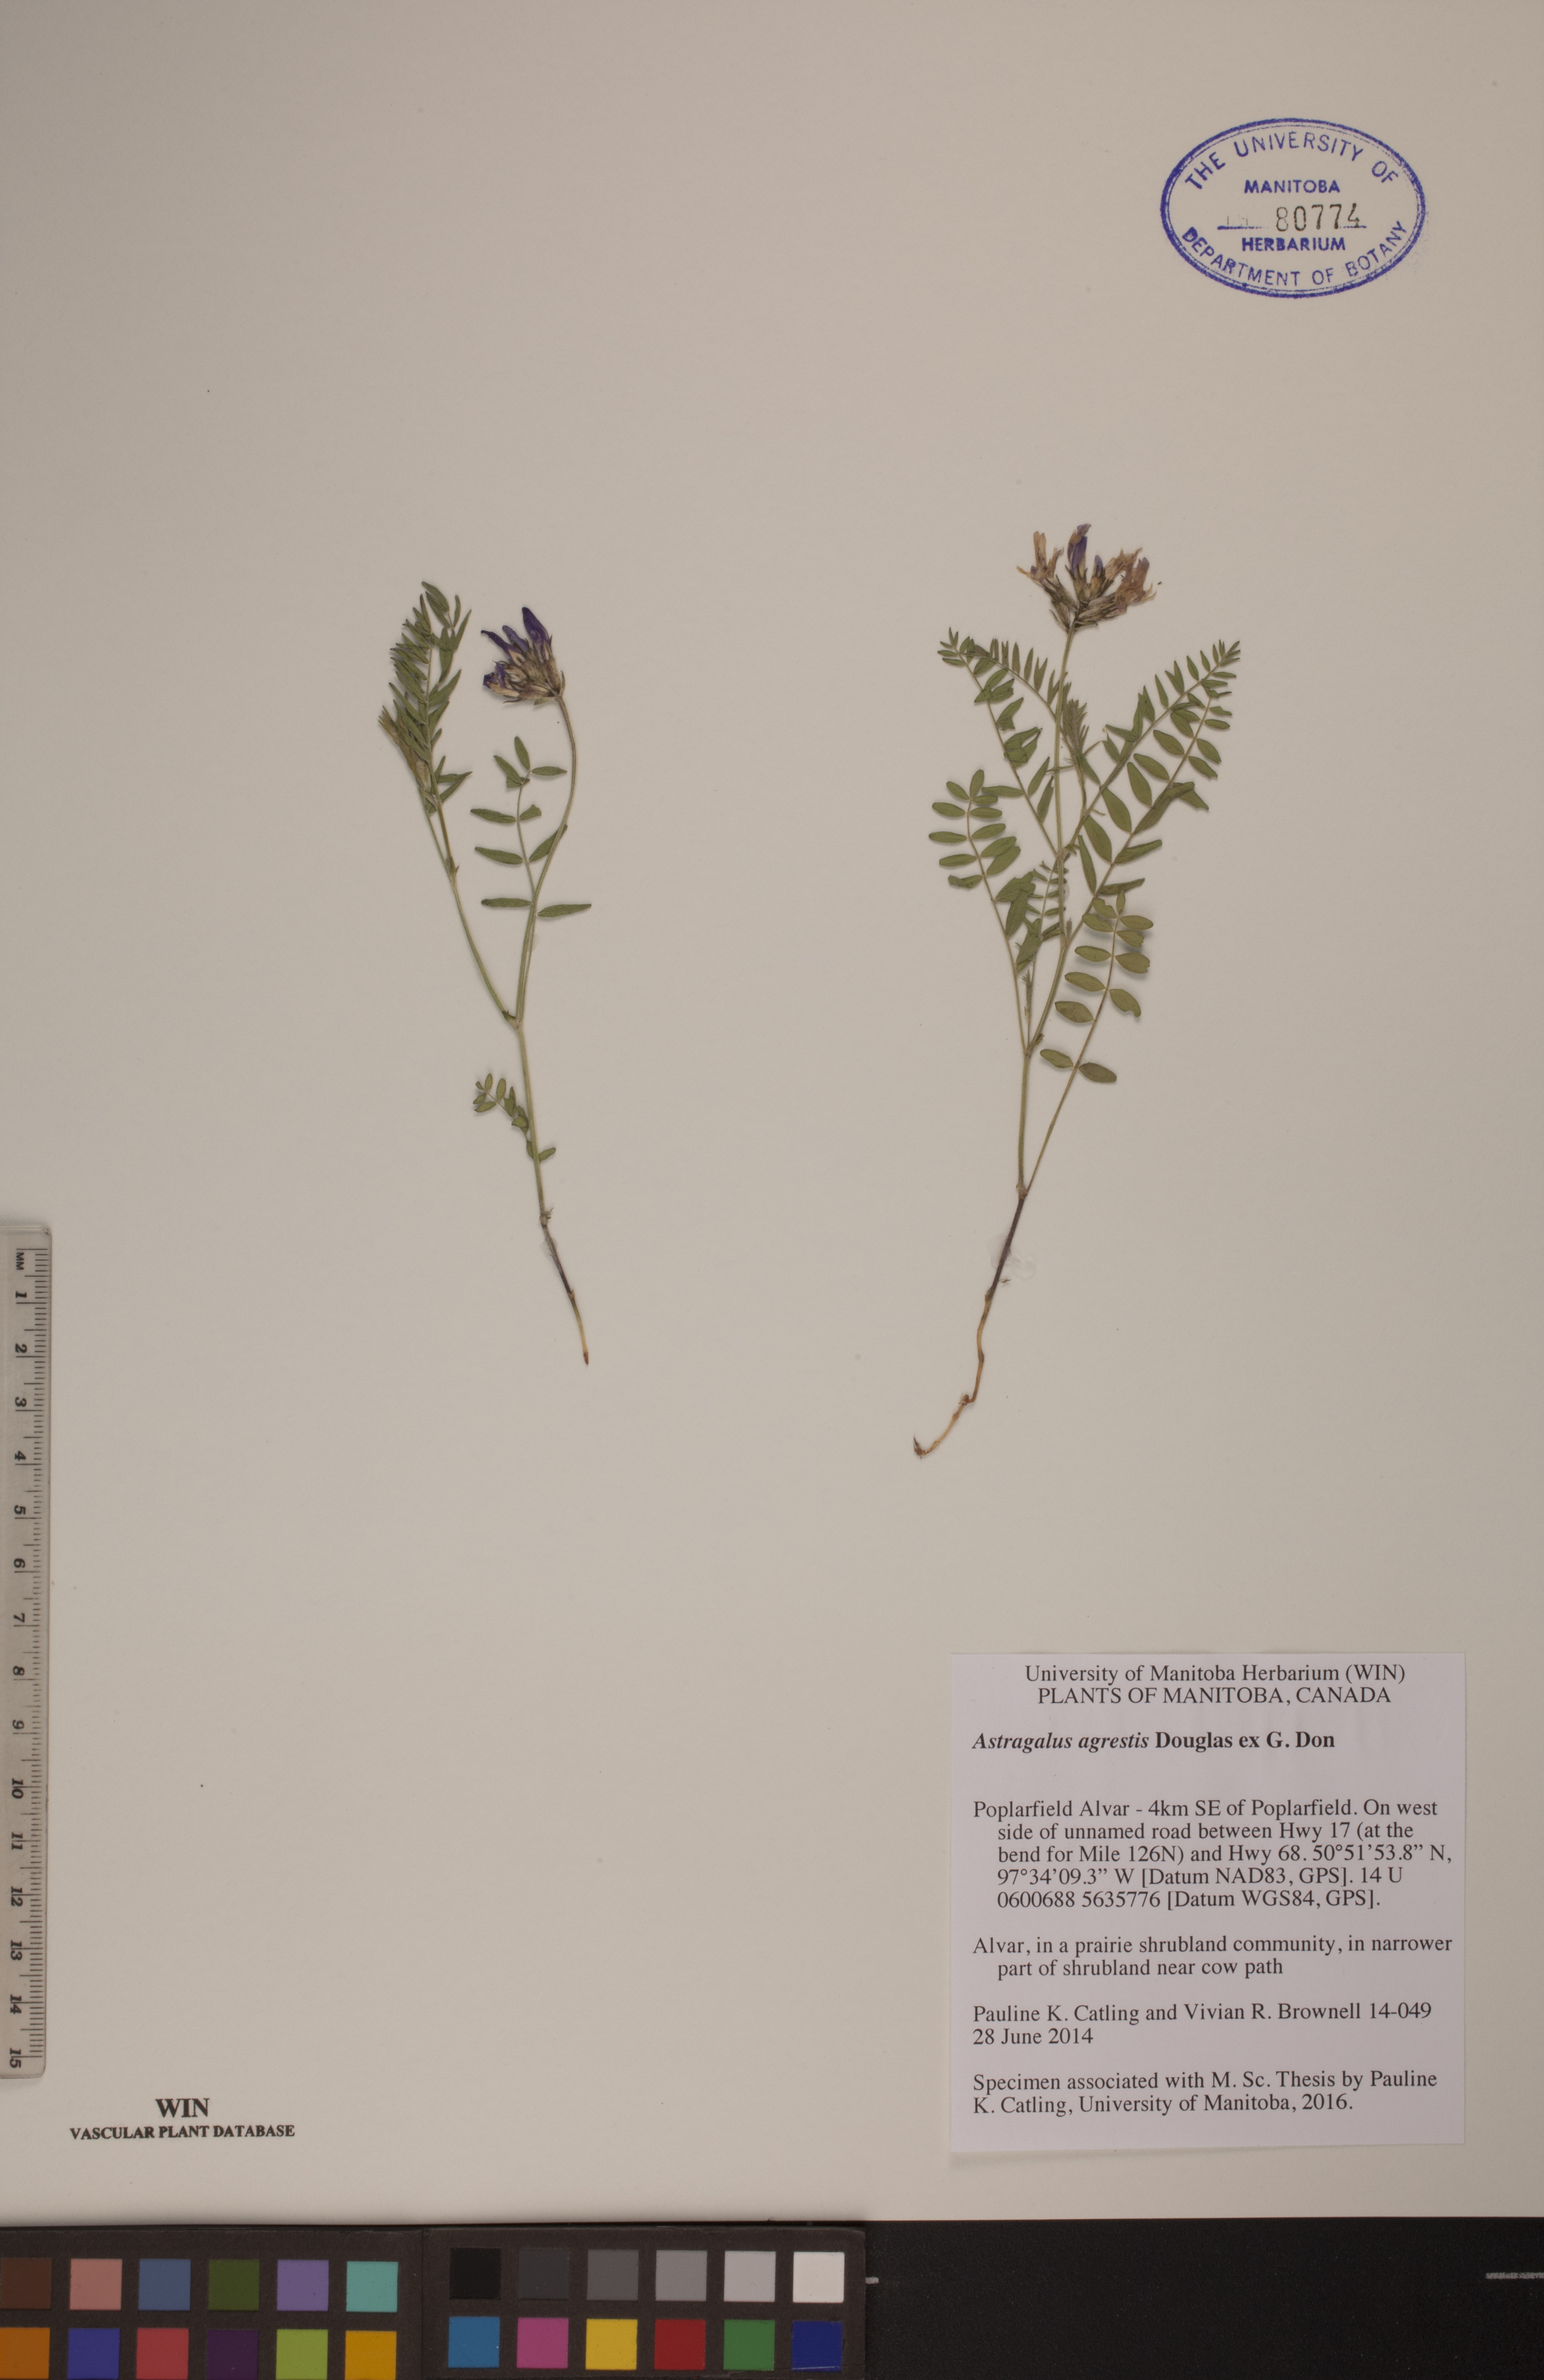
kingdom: Plantae
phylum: Tracheophyta
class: Magnoliopsida
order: Fabales
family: Fabaceae
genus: Astragalus
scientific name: Astragalus agrestis
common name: Field milk-vetch
